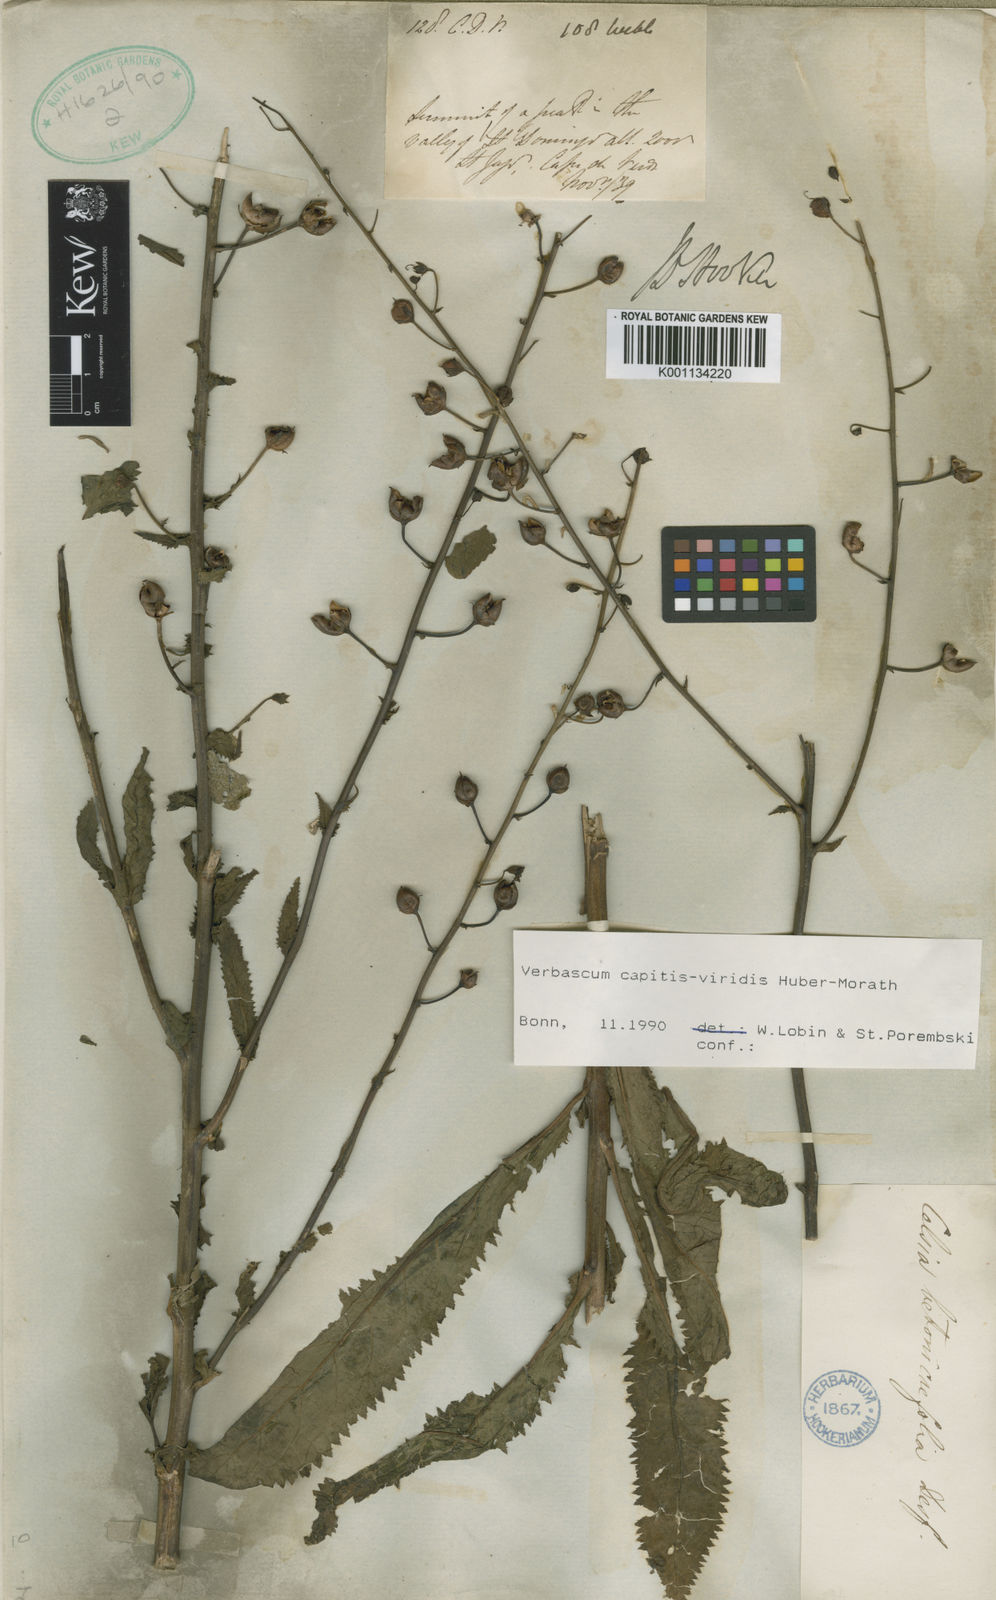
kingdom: Plantae
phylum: Tracheophyta
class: Magnoliopsida
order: Lamiales
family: Scrophulariaceae
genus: Verbascum
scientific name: Verbascum capitis-viridis
